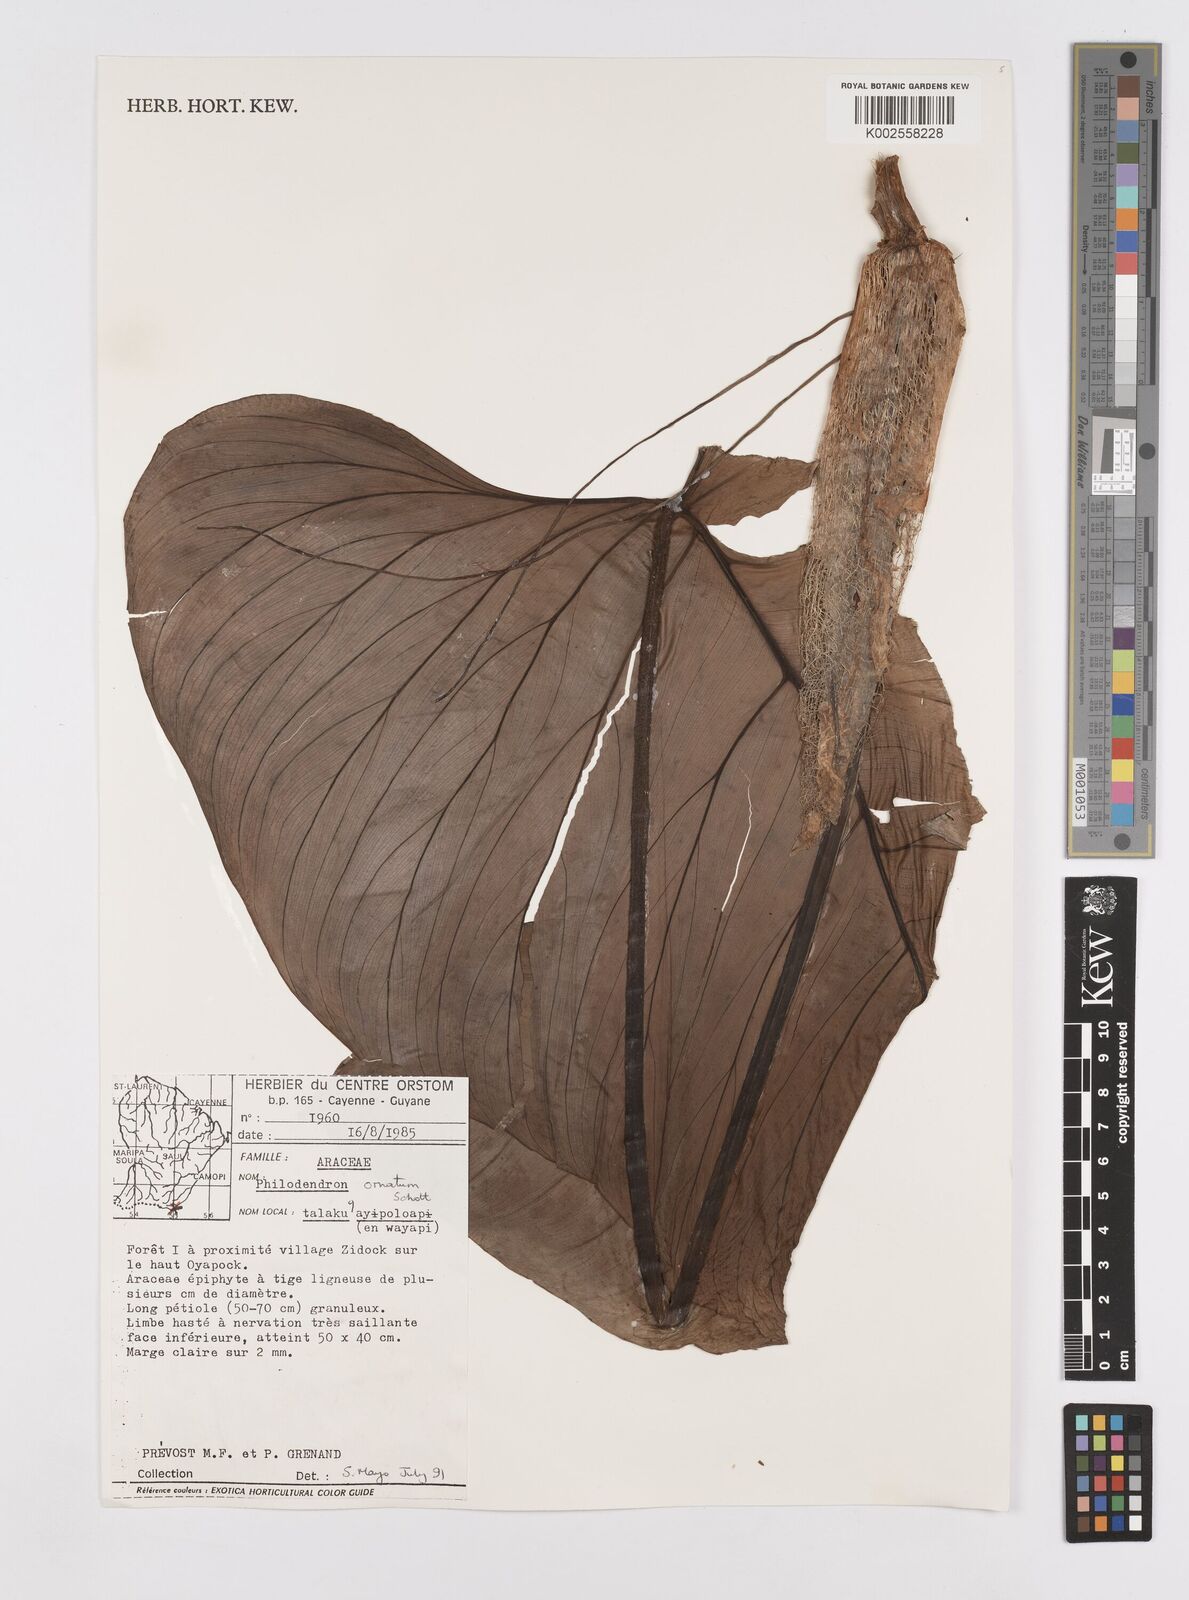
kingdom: Plantae
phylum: Tracheophyta
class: Liliopsida
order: Alismatales
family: Araceae
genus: Philodendron
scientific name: Philodendron ornatum
